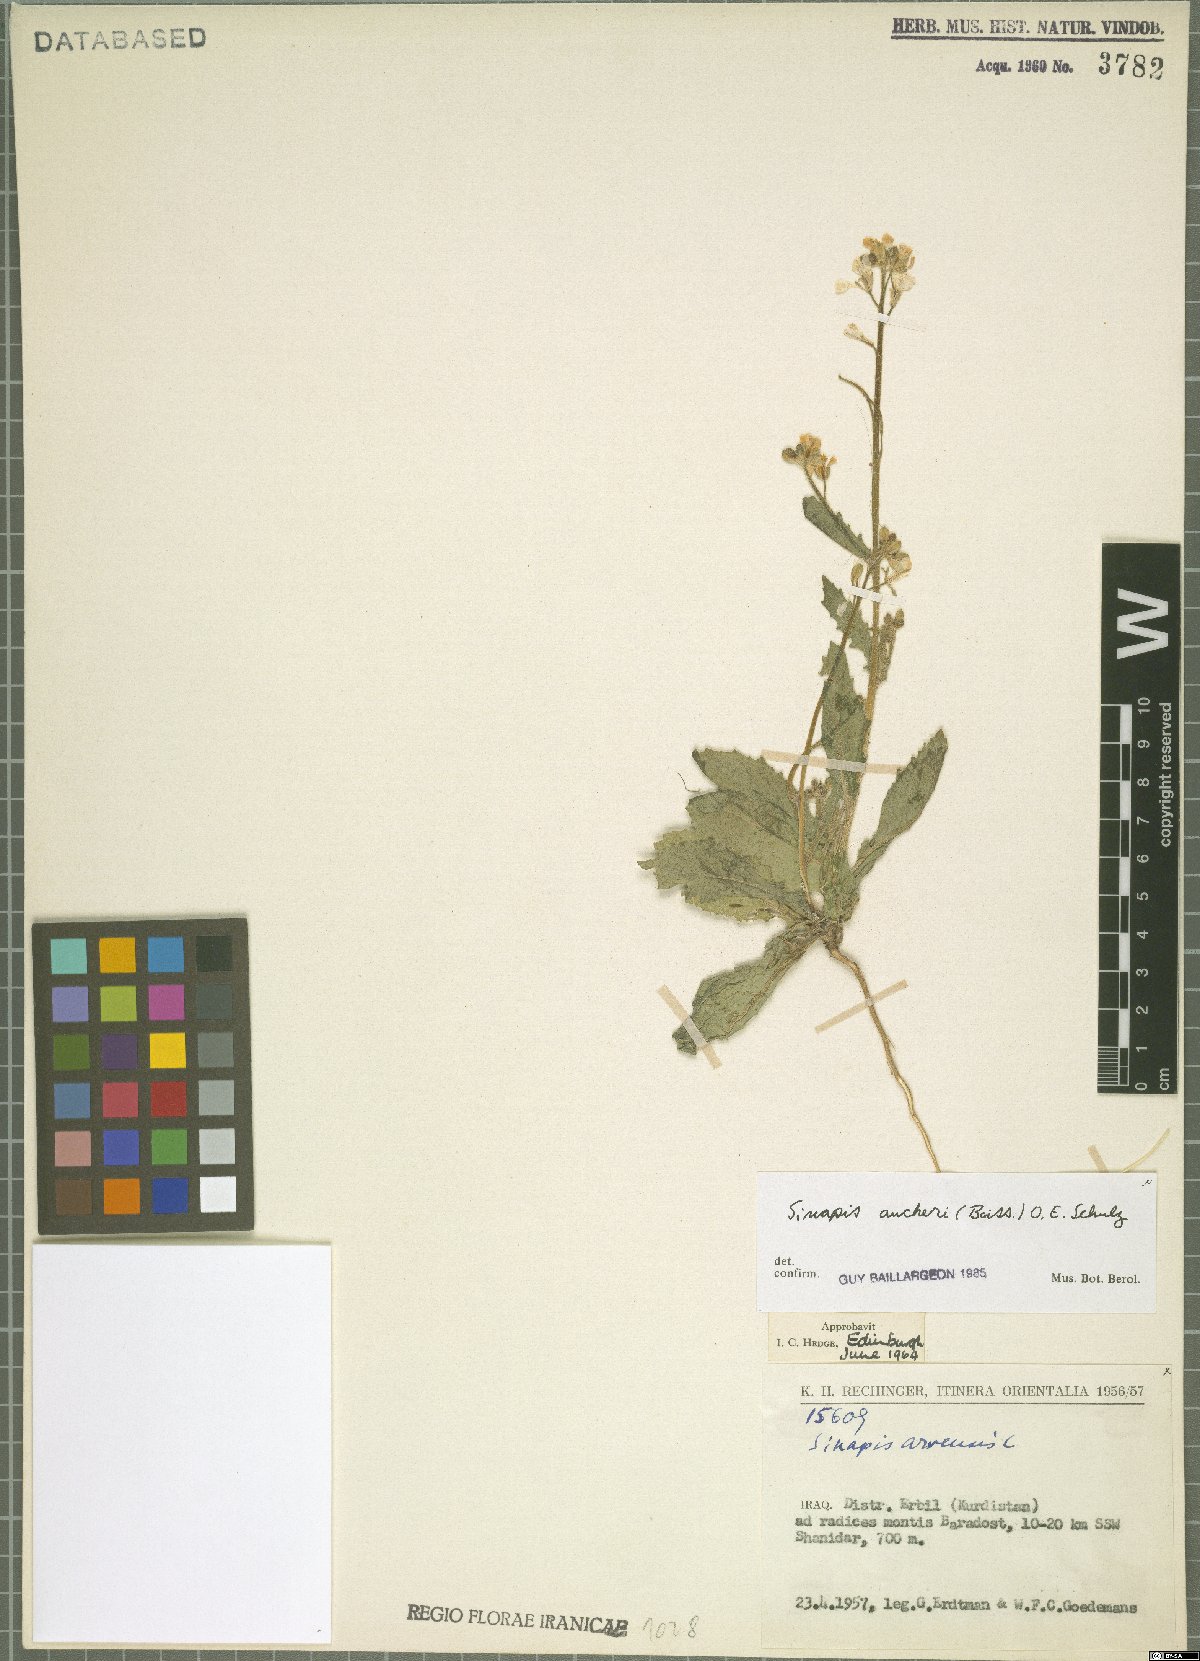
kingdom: Plantae
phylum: Tracheophyta
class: Magnoliopsida
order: Brassicales
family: Brassicaceae
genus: Brassica
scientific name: Brassica aucheri
